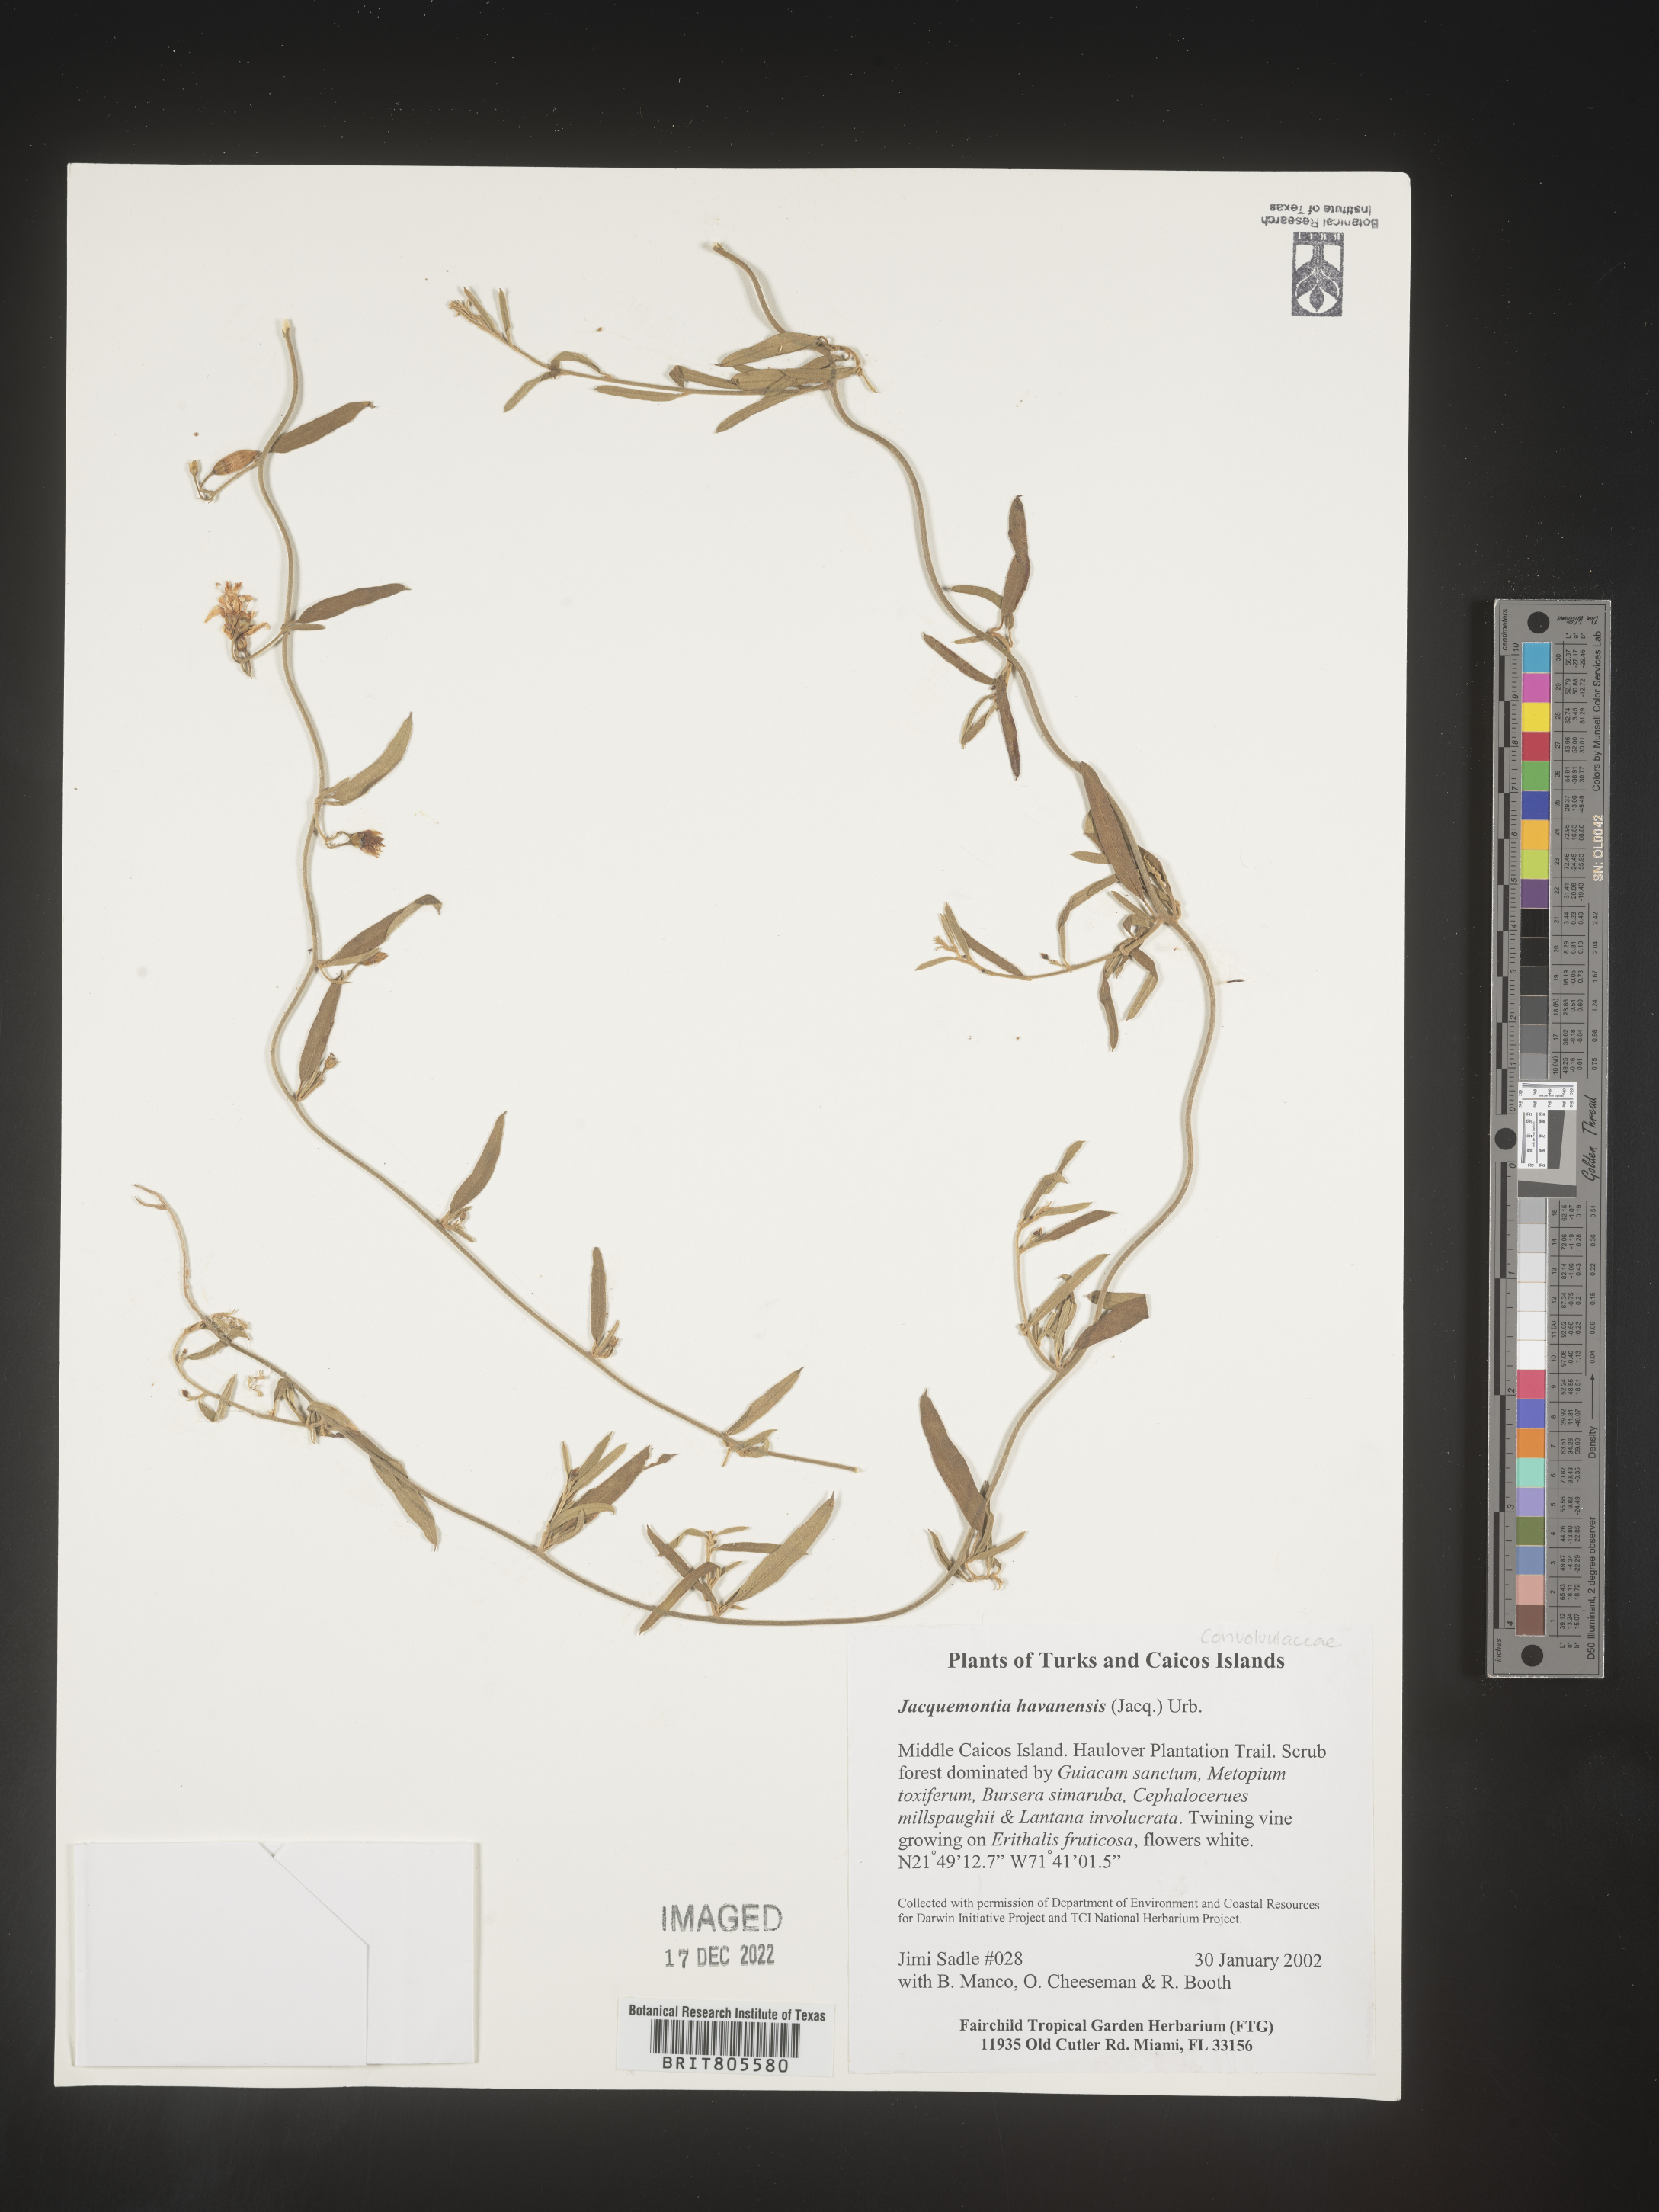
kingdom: Plantae
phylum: Tracheophyta
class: Magnoliopsida
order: Solanales
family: Convolvulaceae
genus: Jacquemontia
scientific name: Jacquemontia
